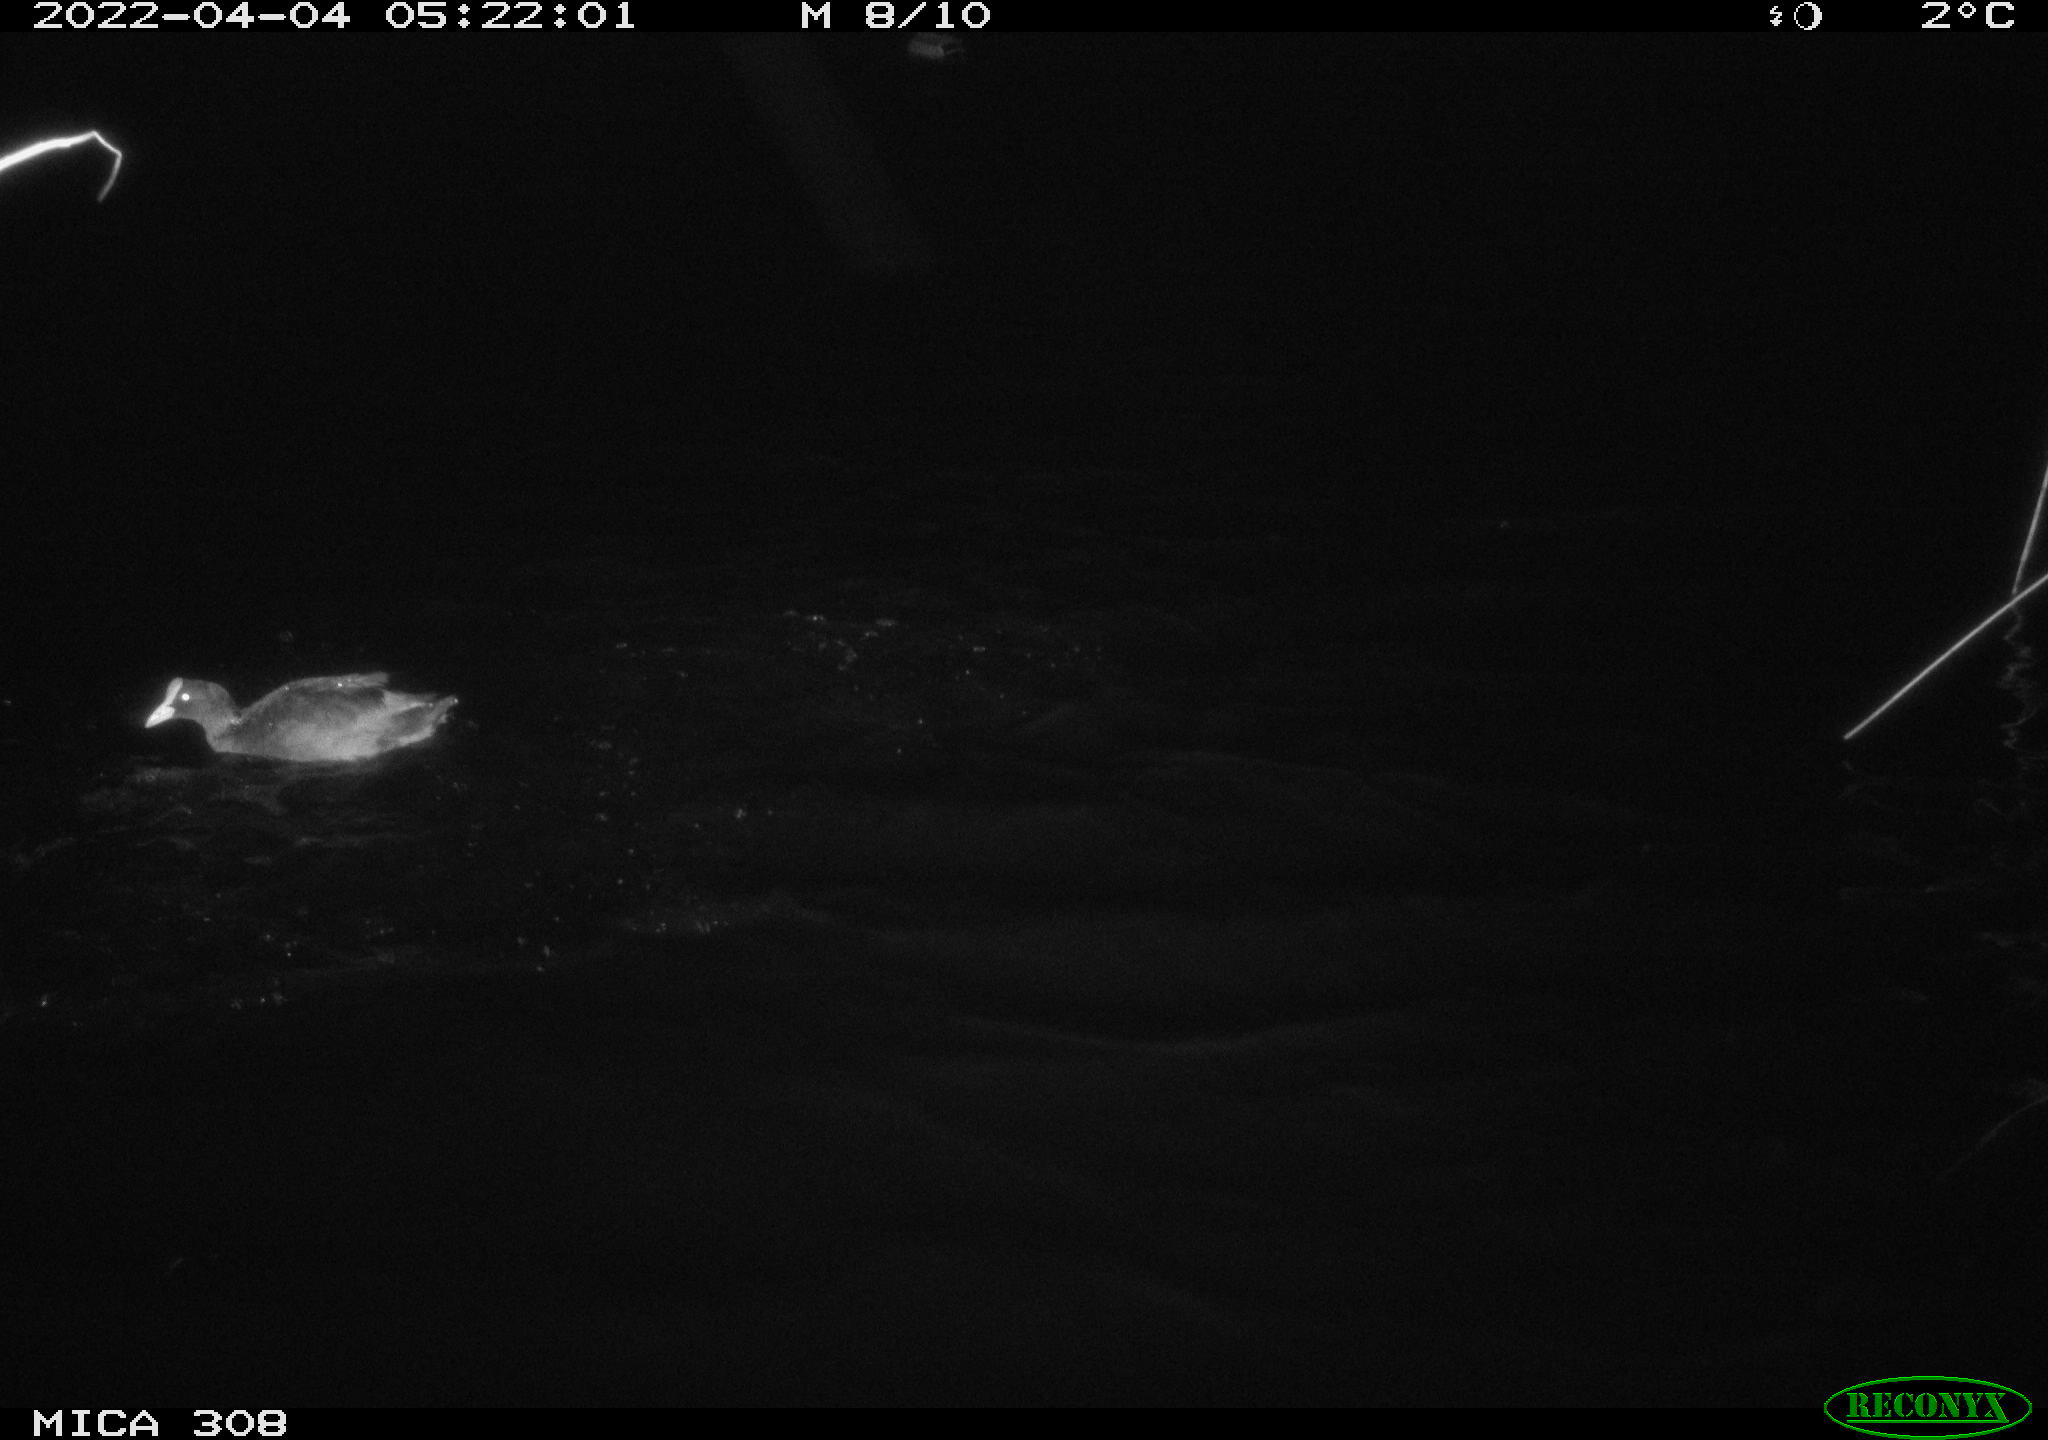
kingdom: Animalia
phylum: Chordata
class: Aves
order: Gruiformes
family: Rallidae
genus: Fulica
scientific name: Fulica atra
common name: Eurasian coot
